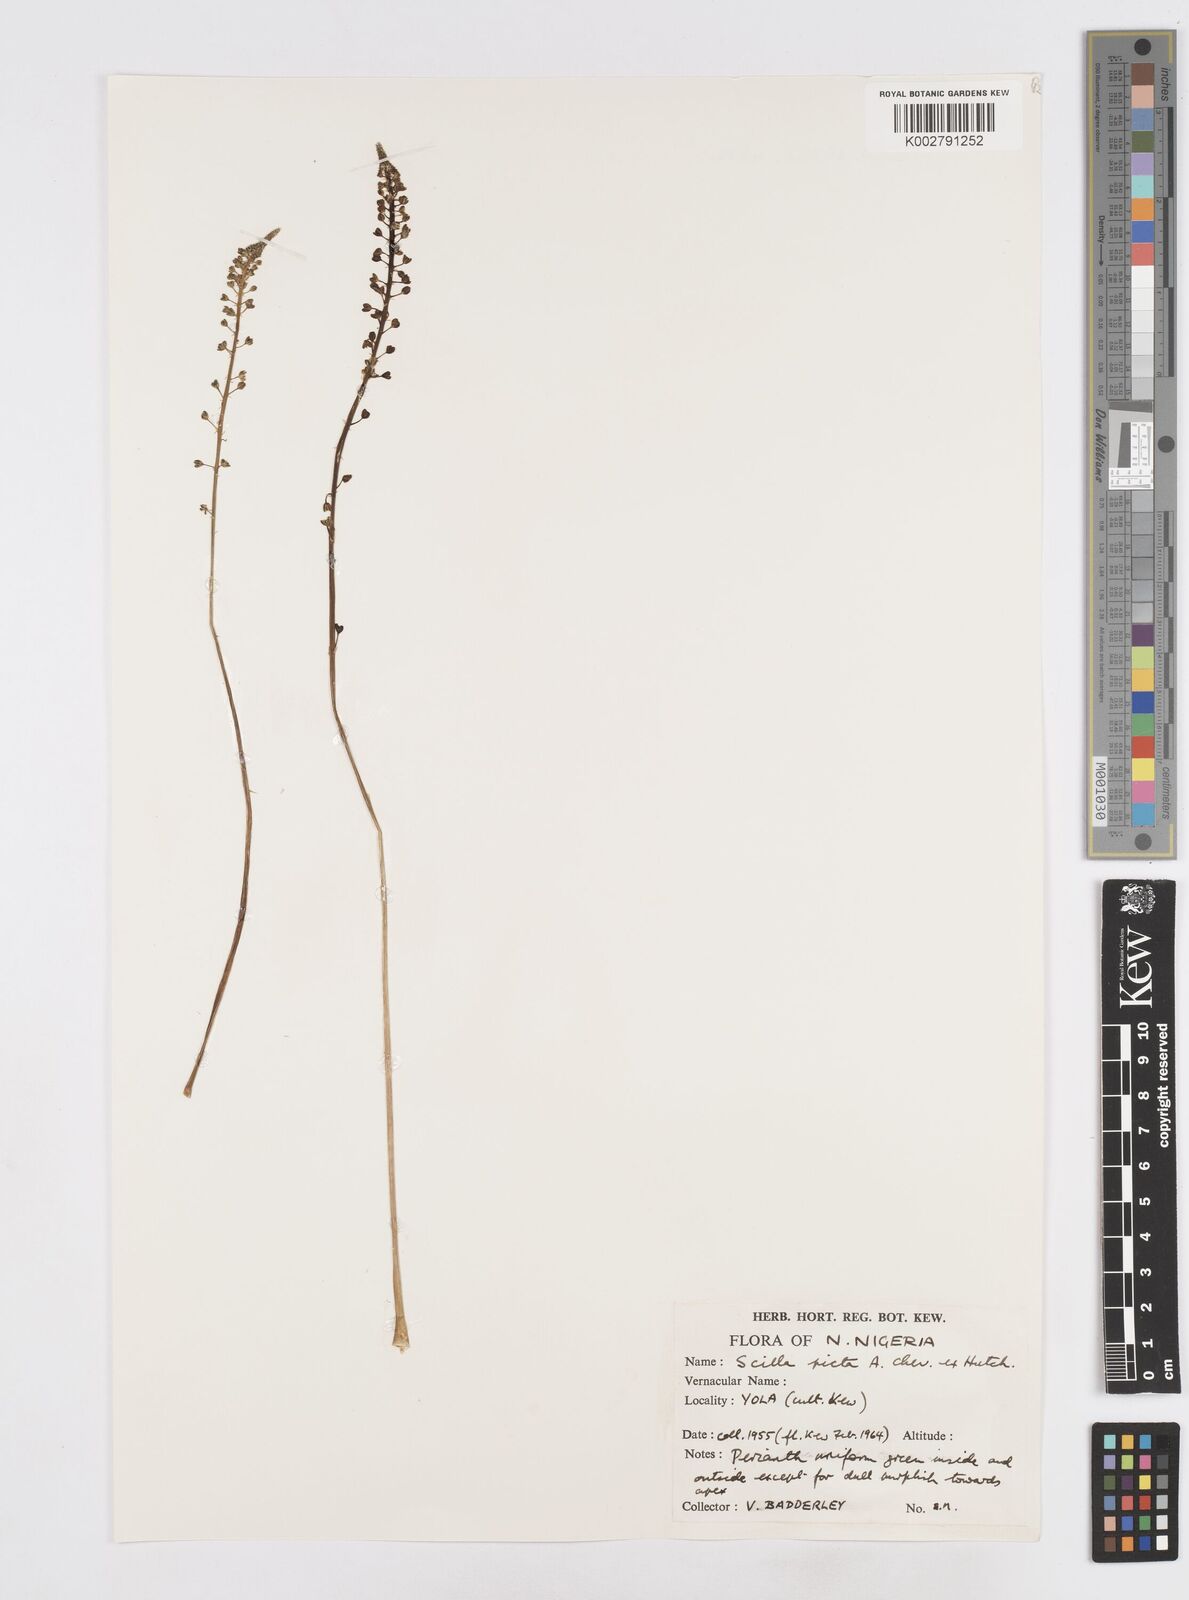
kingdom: Plantae
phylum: Tracheophyta
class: Liliopsida
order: Asparagales
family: Asparagaceae
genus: Ledebouria
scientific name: Ledebouria sudanica
